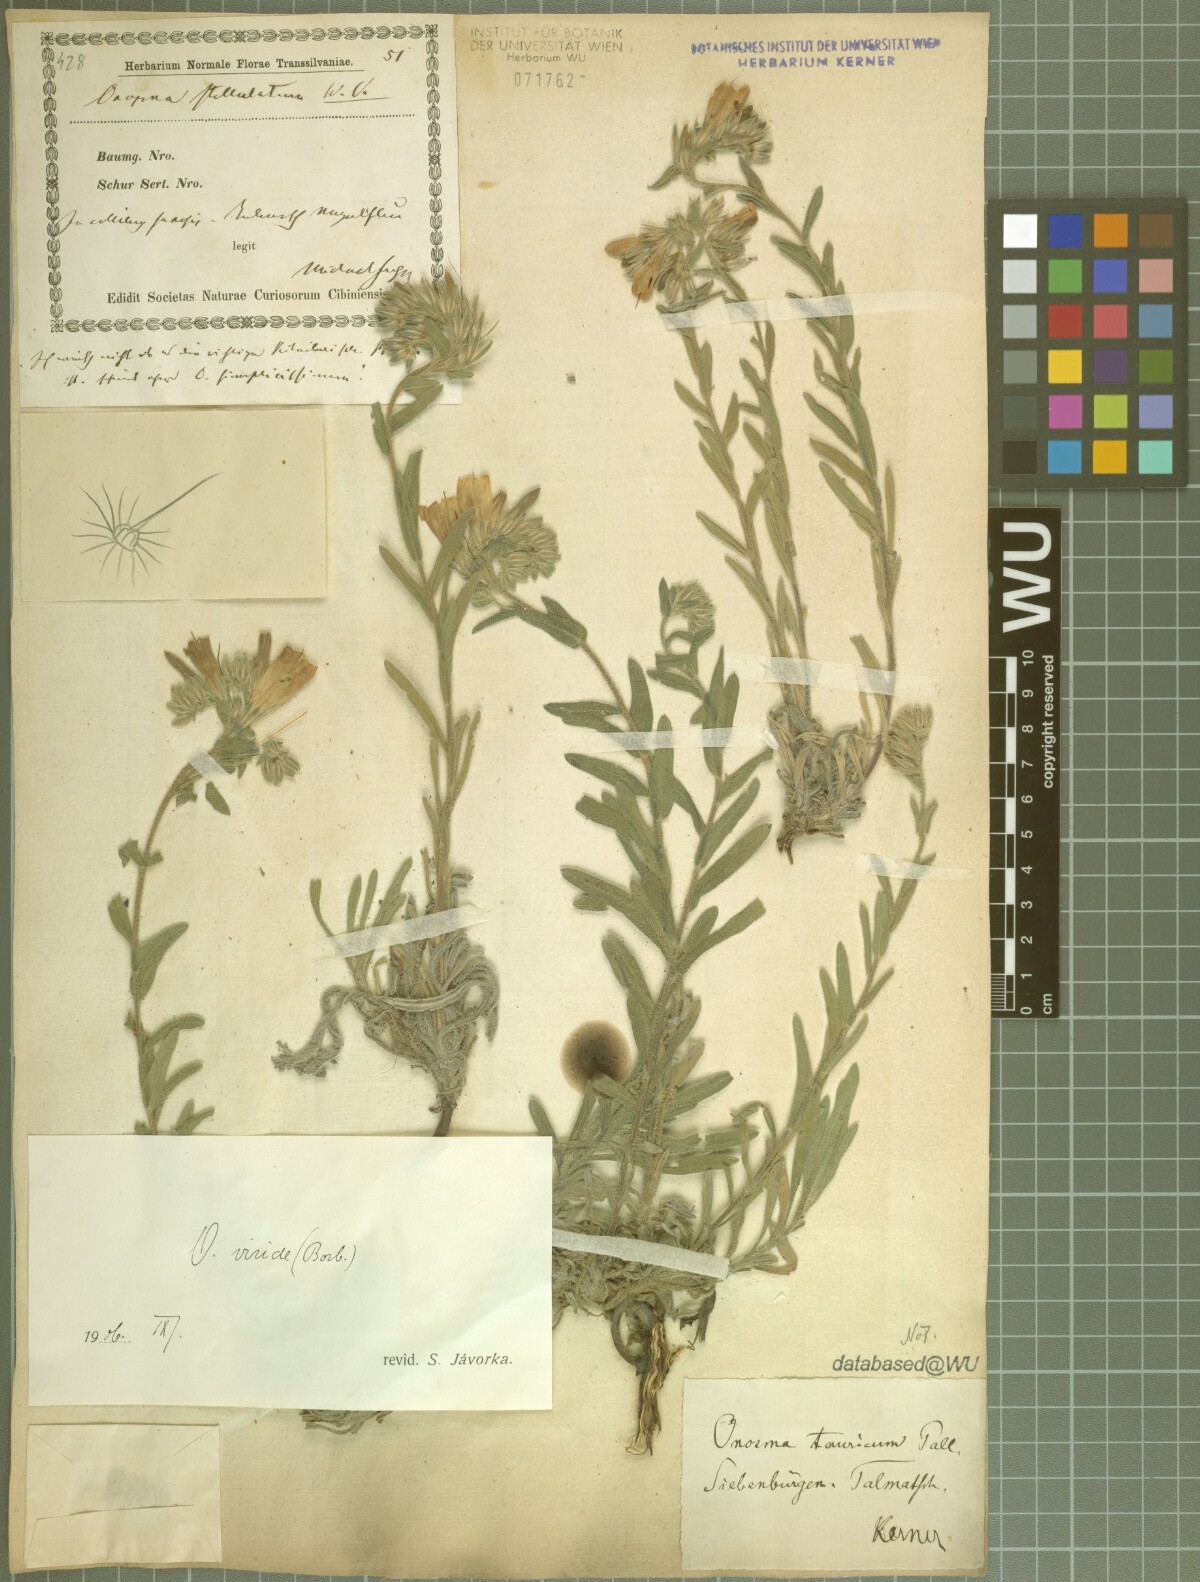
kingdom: Plantae
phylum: Tracheophyta
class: Magnoliopsida
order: Boraginales
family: Boraginaceae
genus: Onosma
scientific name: Onosma viridis
